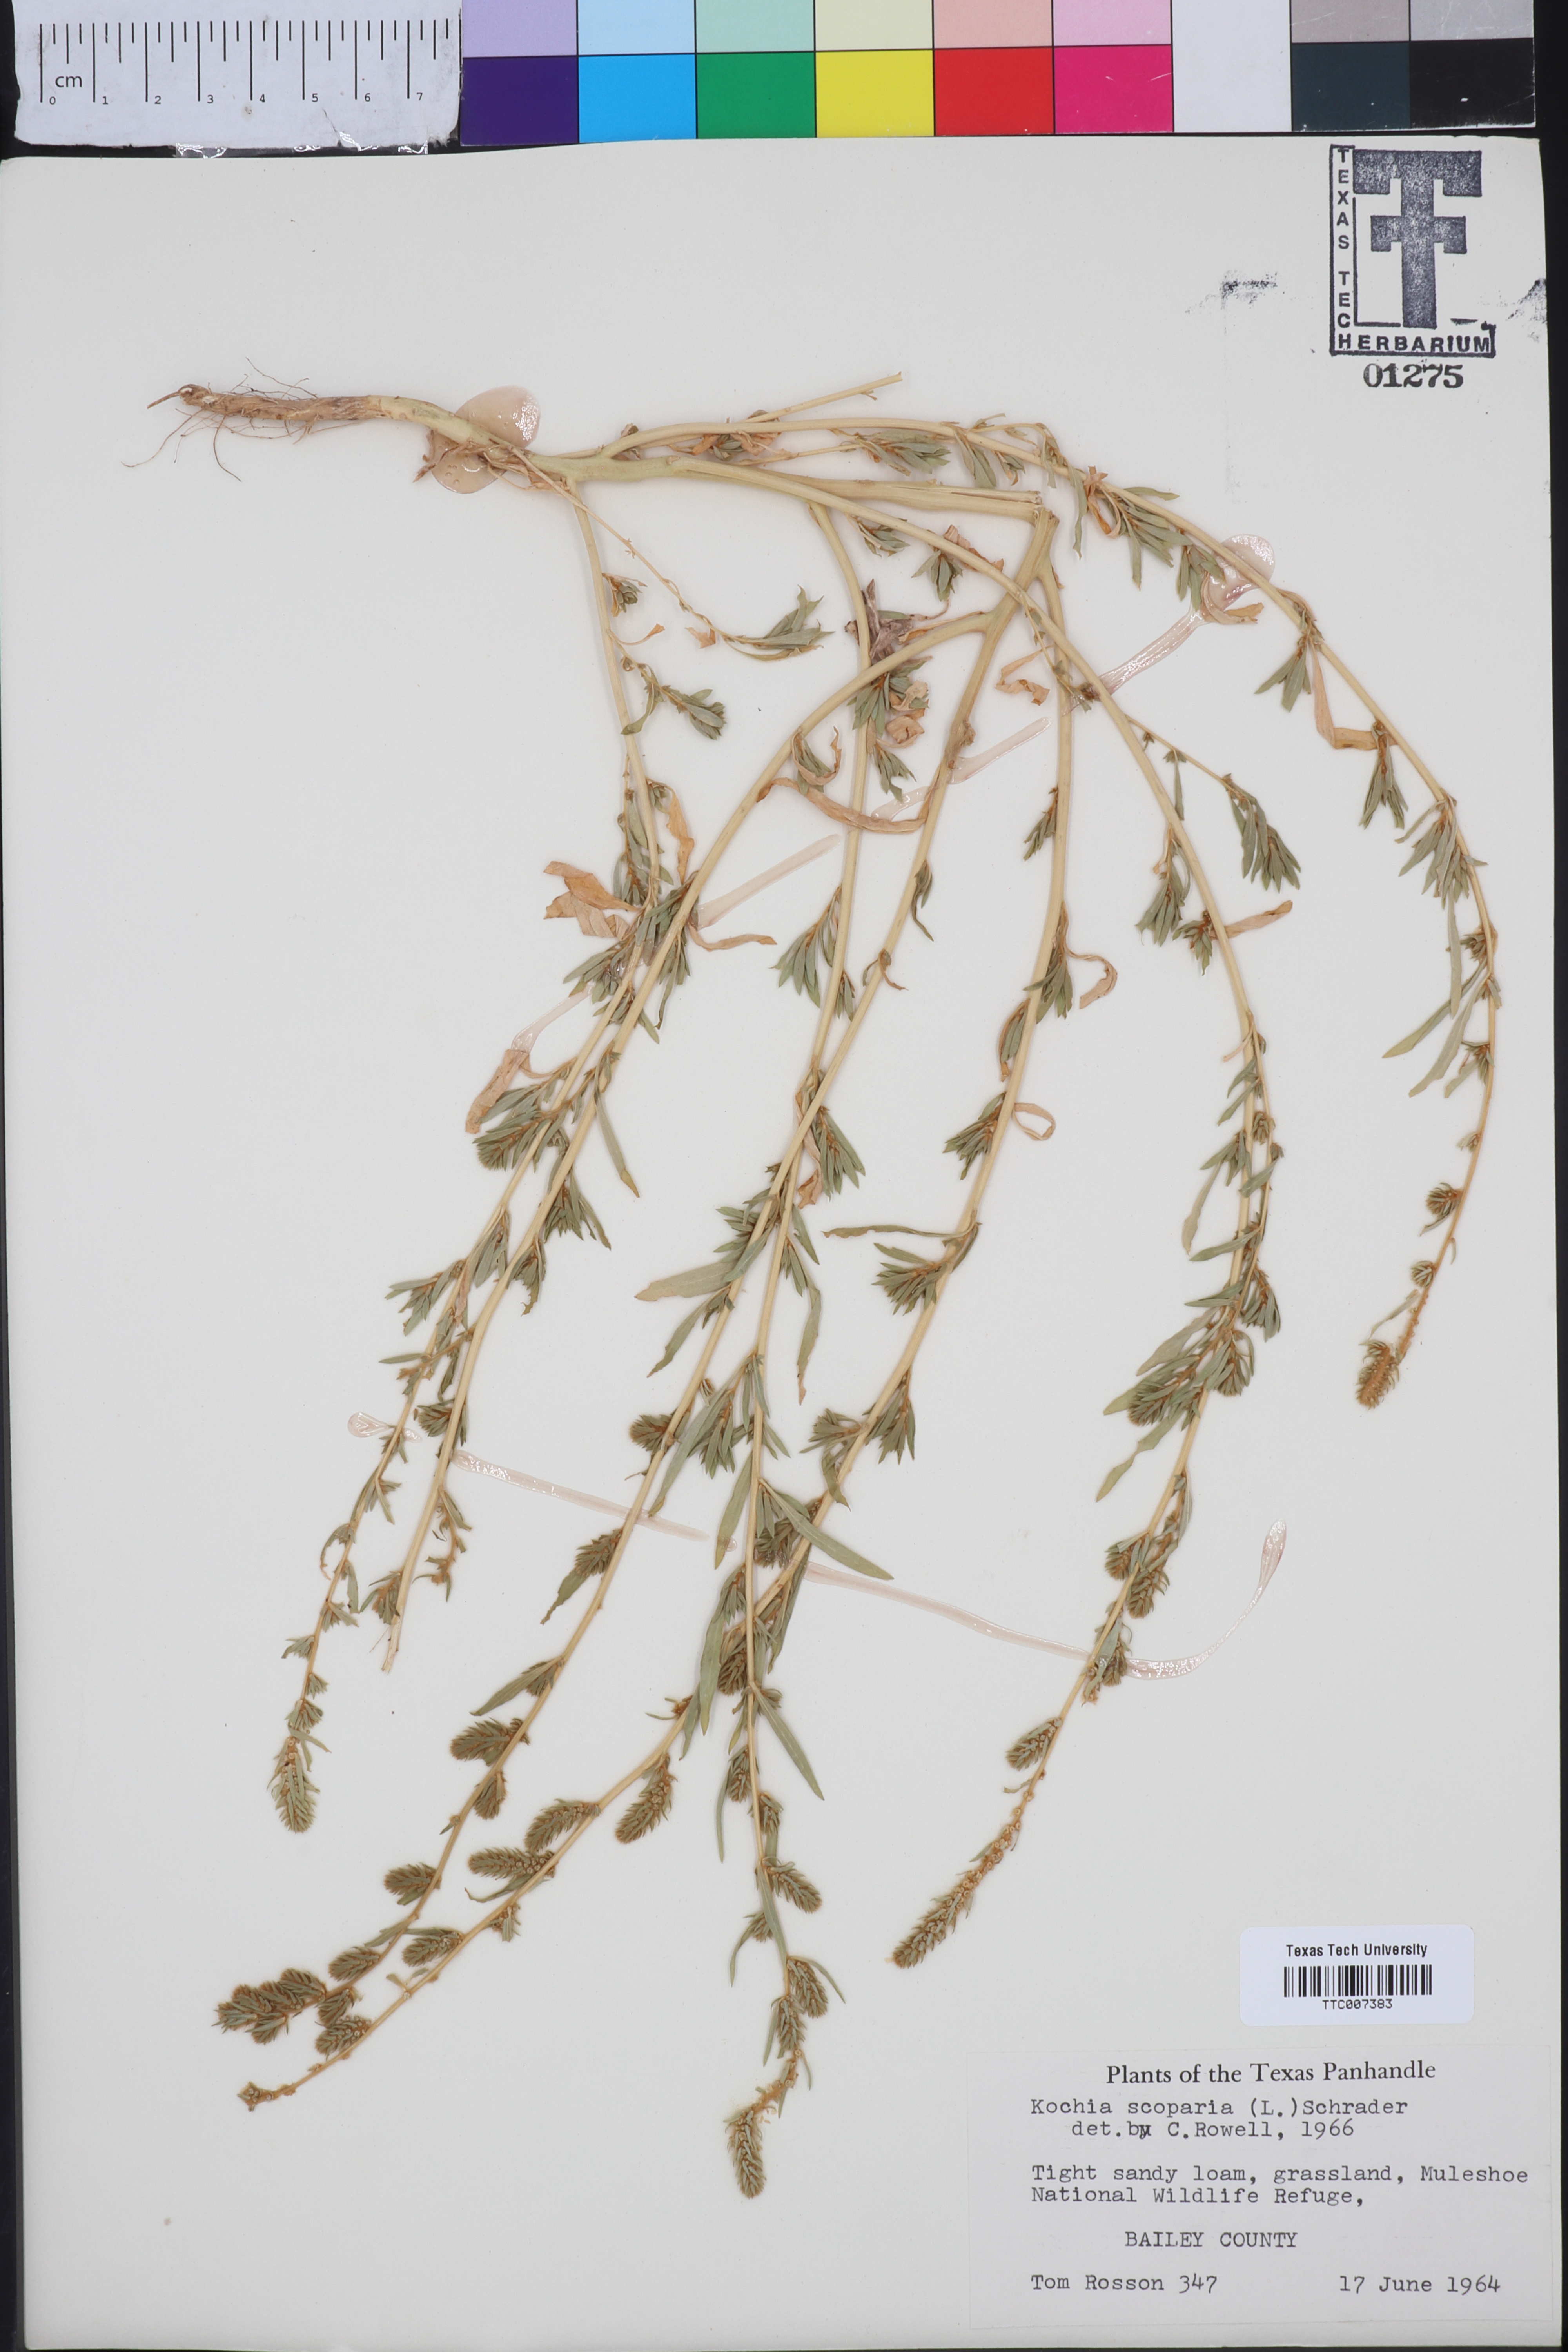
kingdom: Plantae
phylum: Tracheophyta
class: Magnoliopsida
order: Caryophyllales
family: Amaranthaceae
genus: Bassia
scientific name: Bassia scoparia
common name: Belvedere
